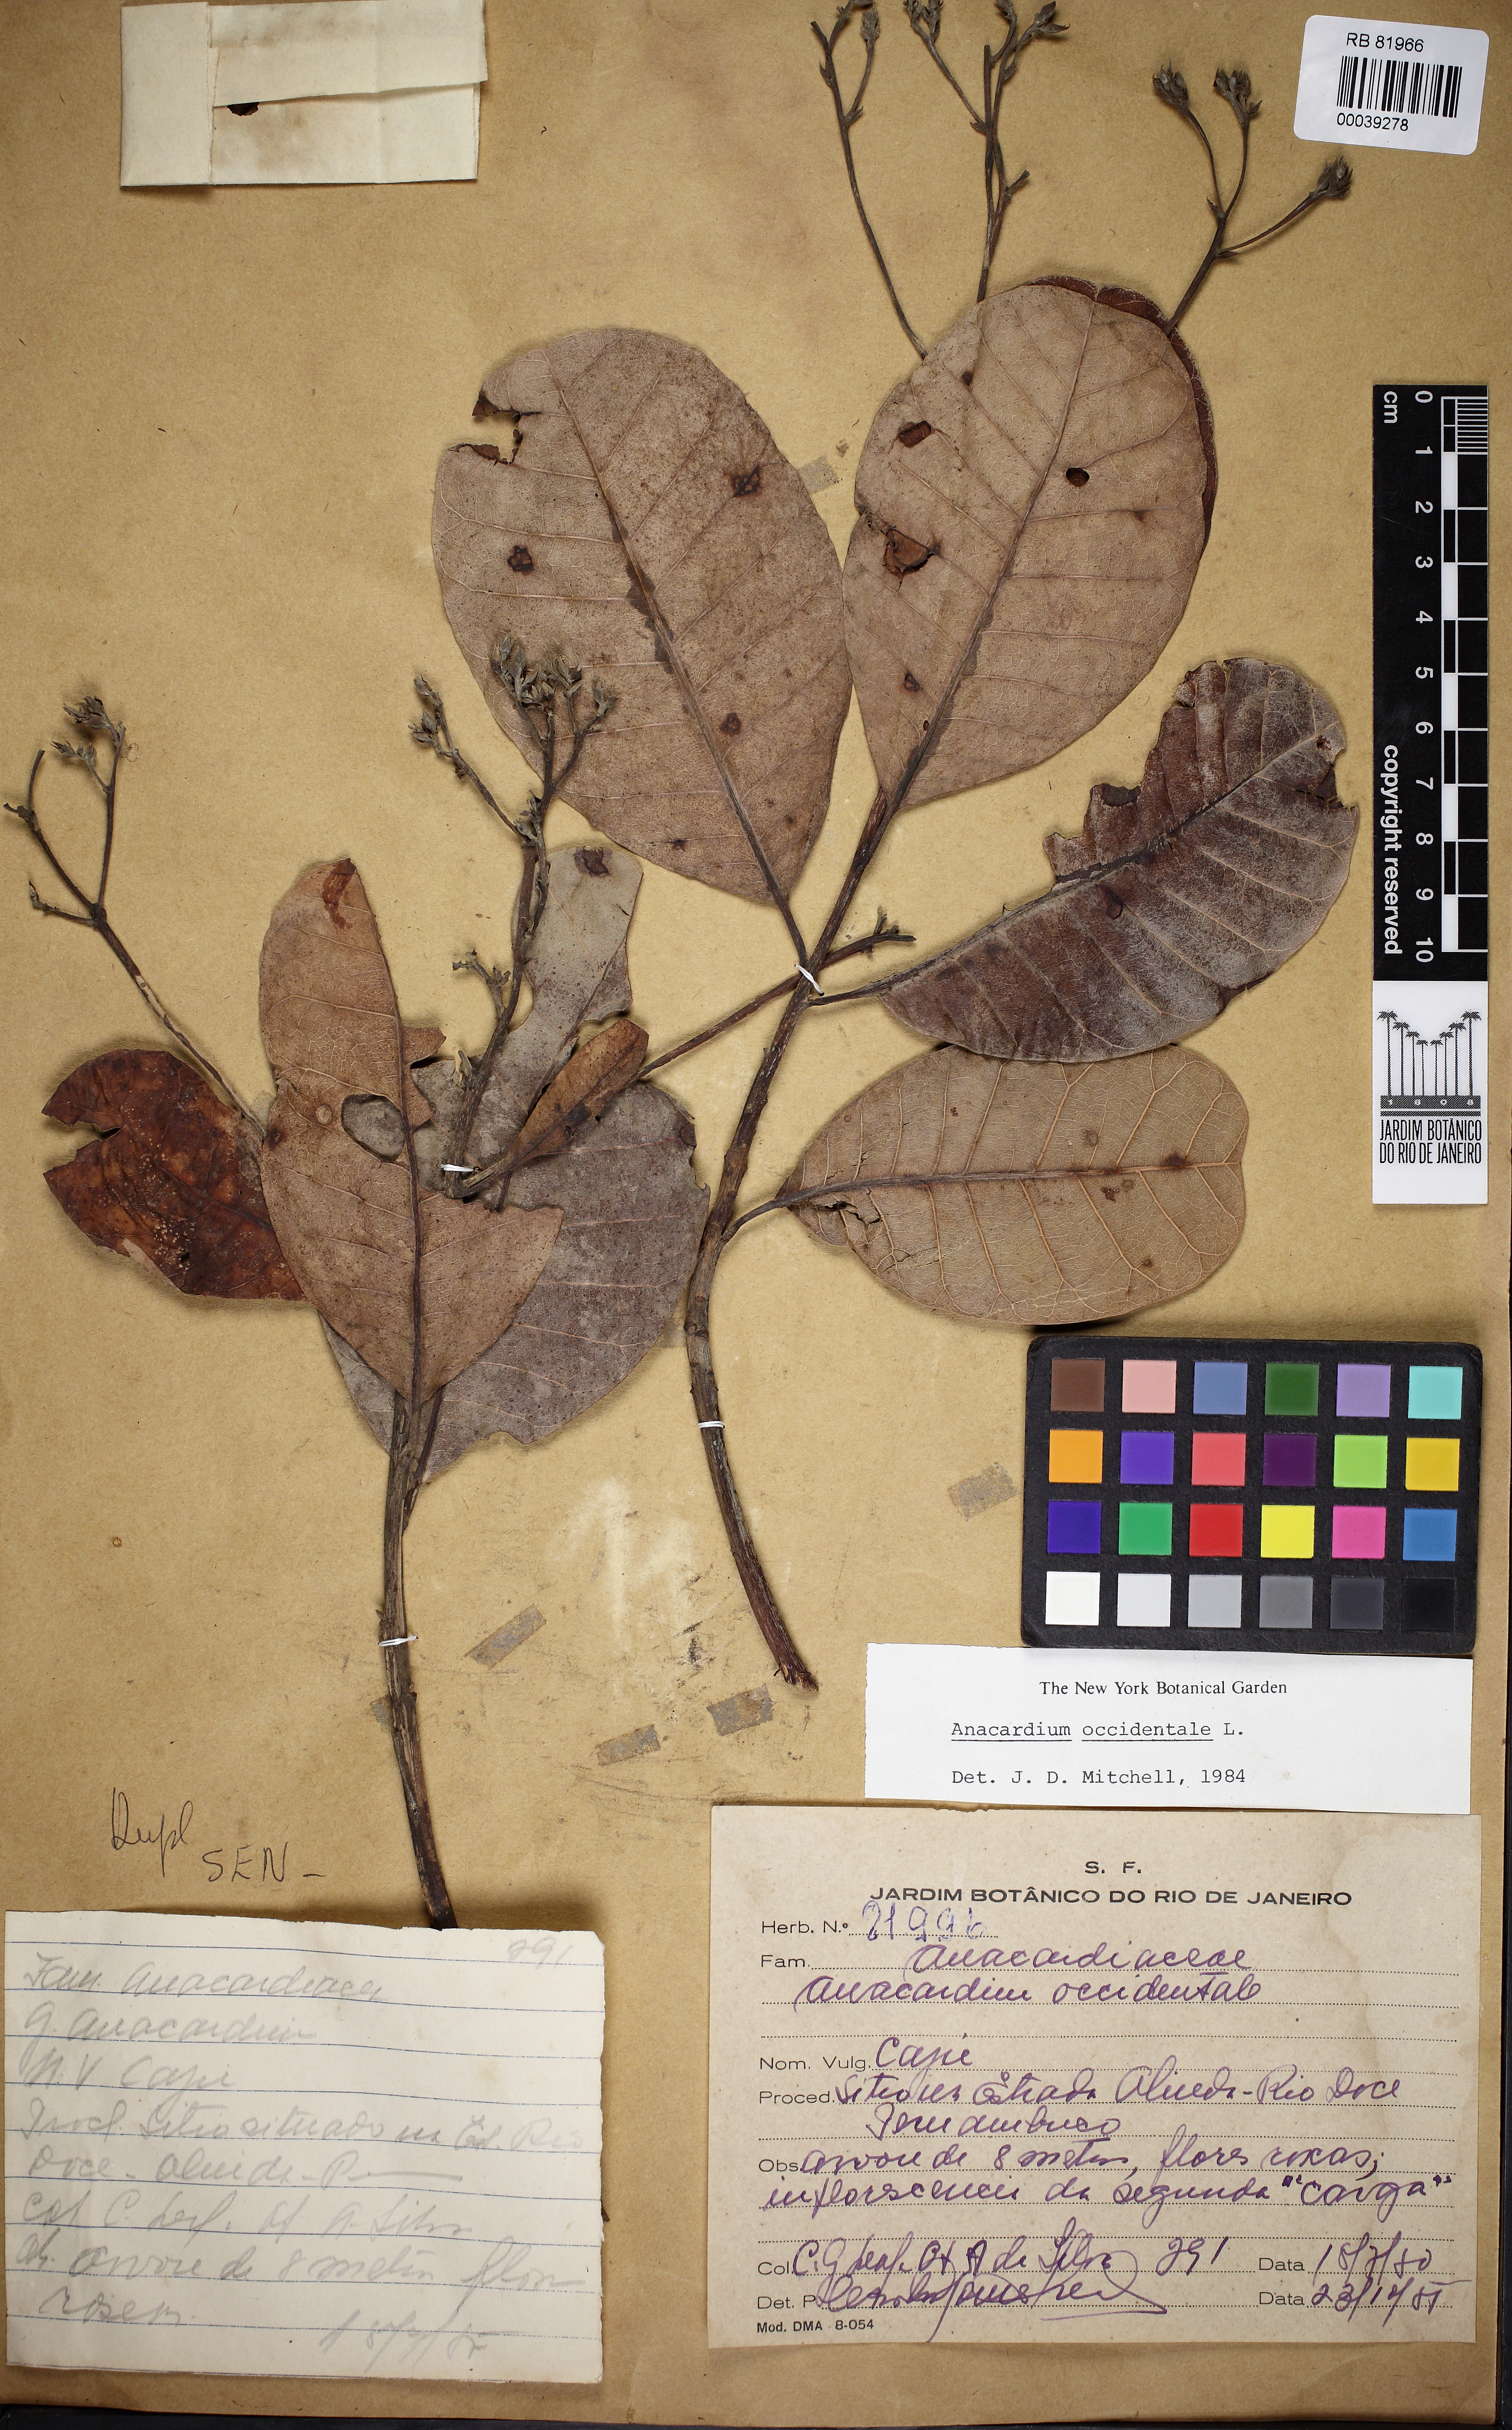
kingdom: Plantae
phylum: Tracheophyta
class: Magnoliopsida
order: Sapindales
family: Anacardiaceae
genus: Anacardium
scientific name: Anacardium occidentale
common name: Cashew
